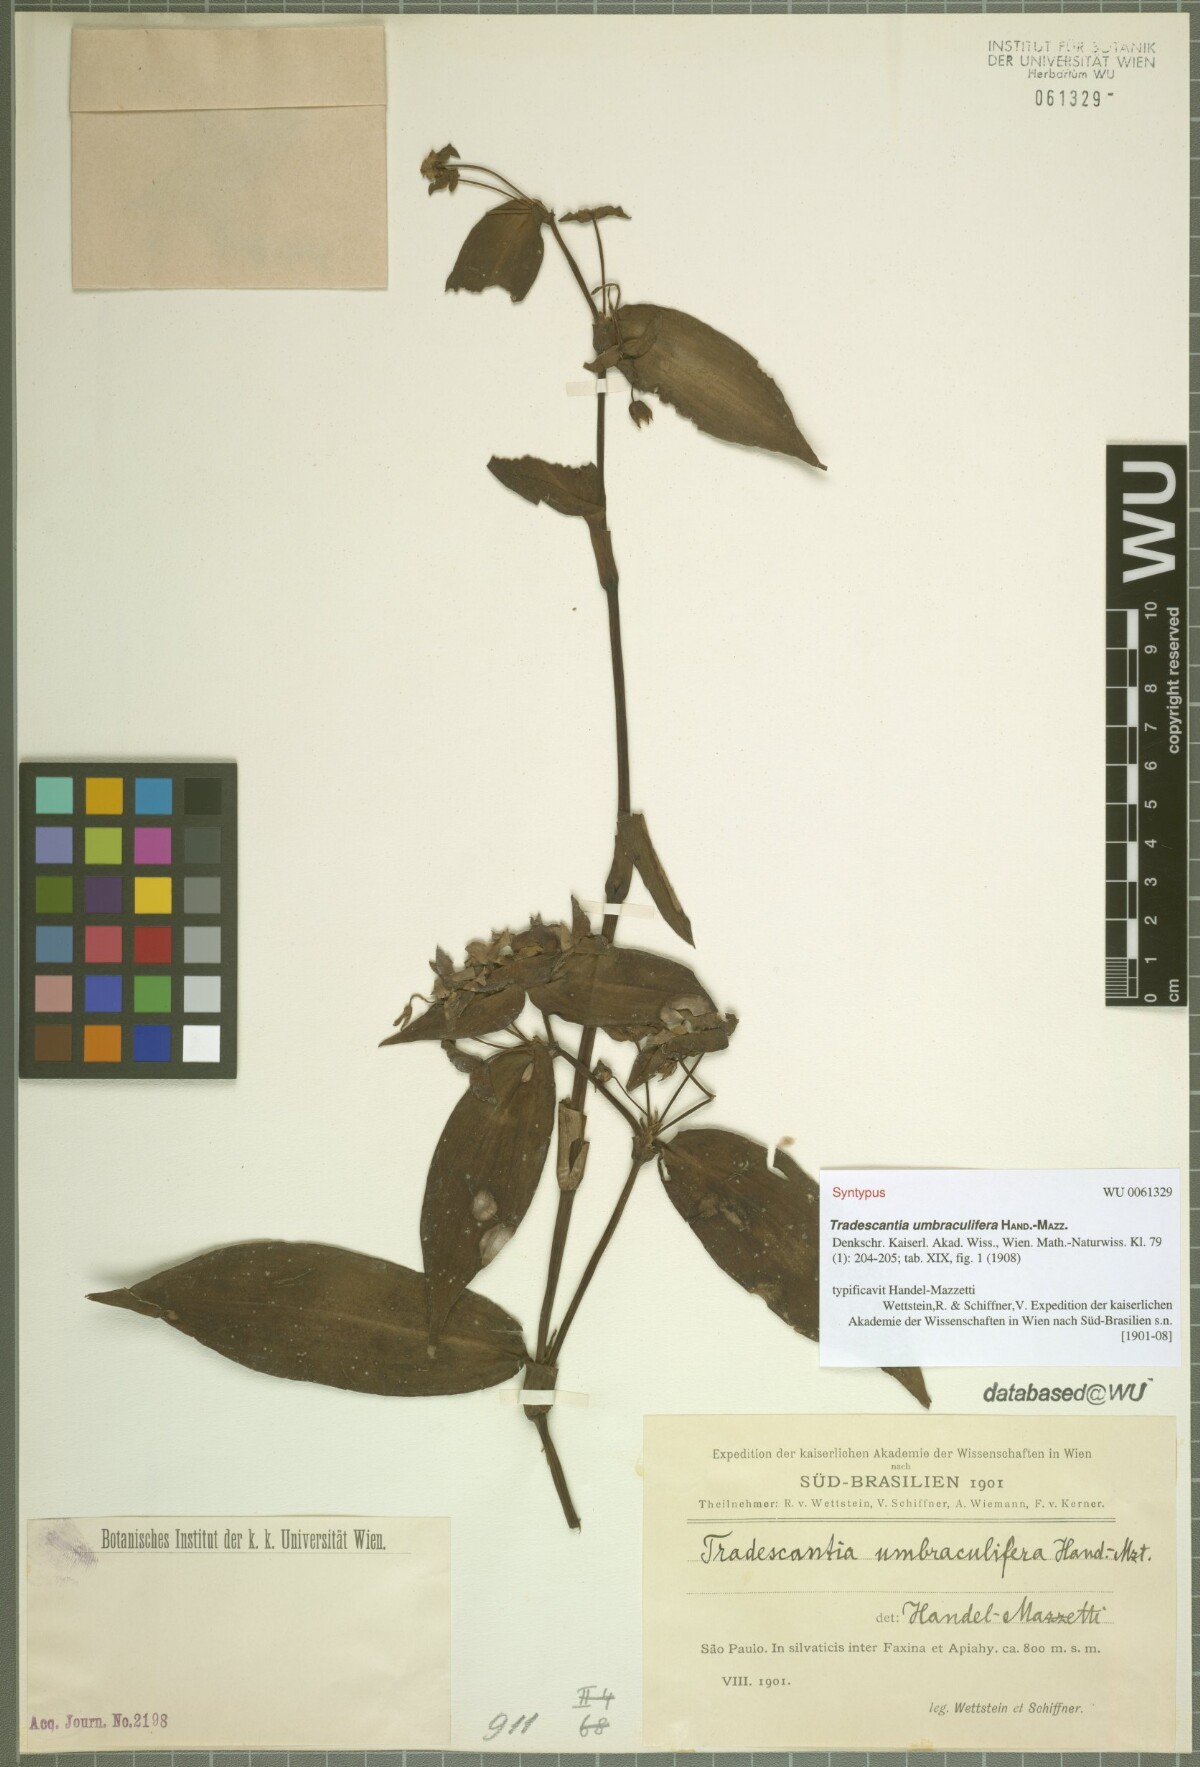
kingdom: Plantae
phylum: Tracheophyta
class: Liliopsida
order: Commelinales
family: Commelinaceae
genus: Tradescantia
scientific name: Tradescantia umbraculifera
